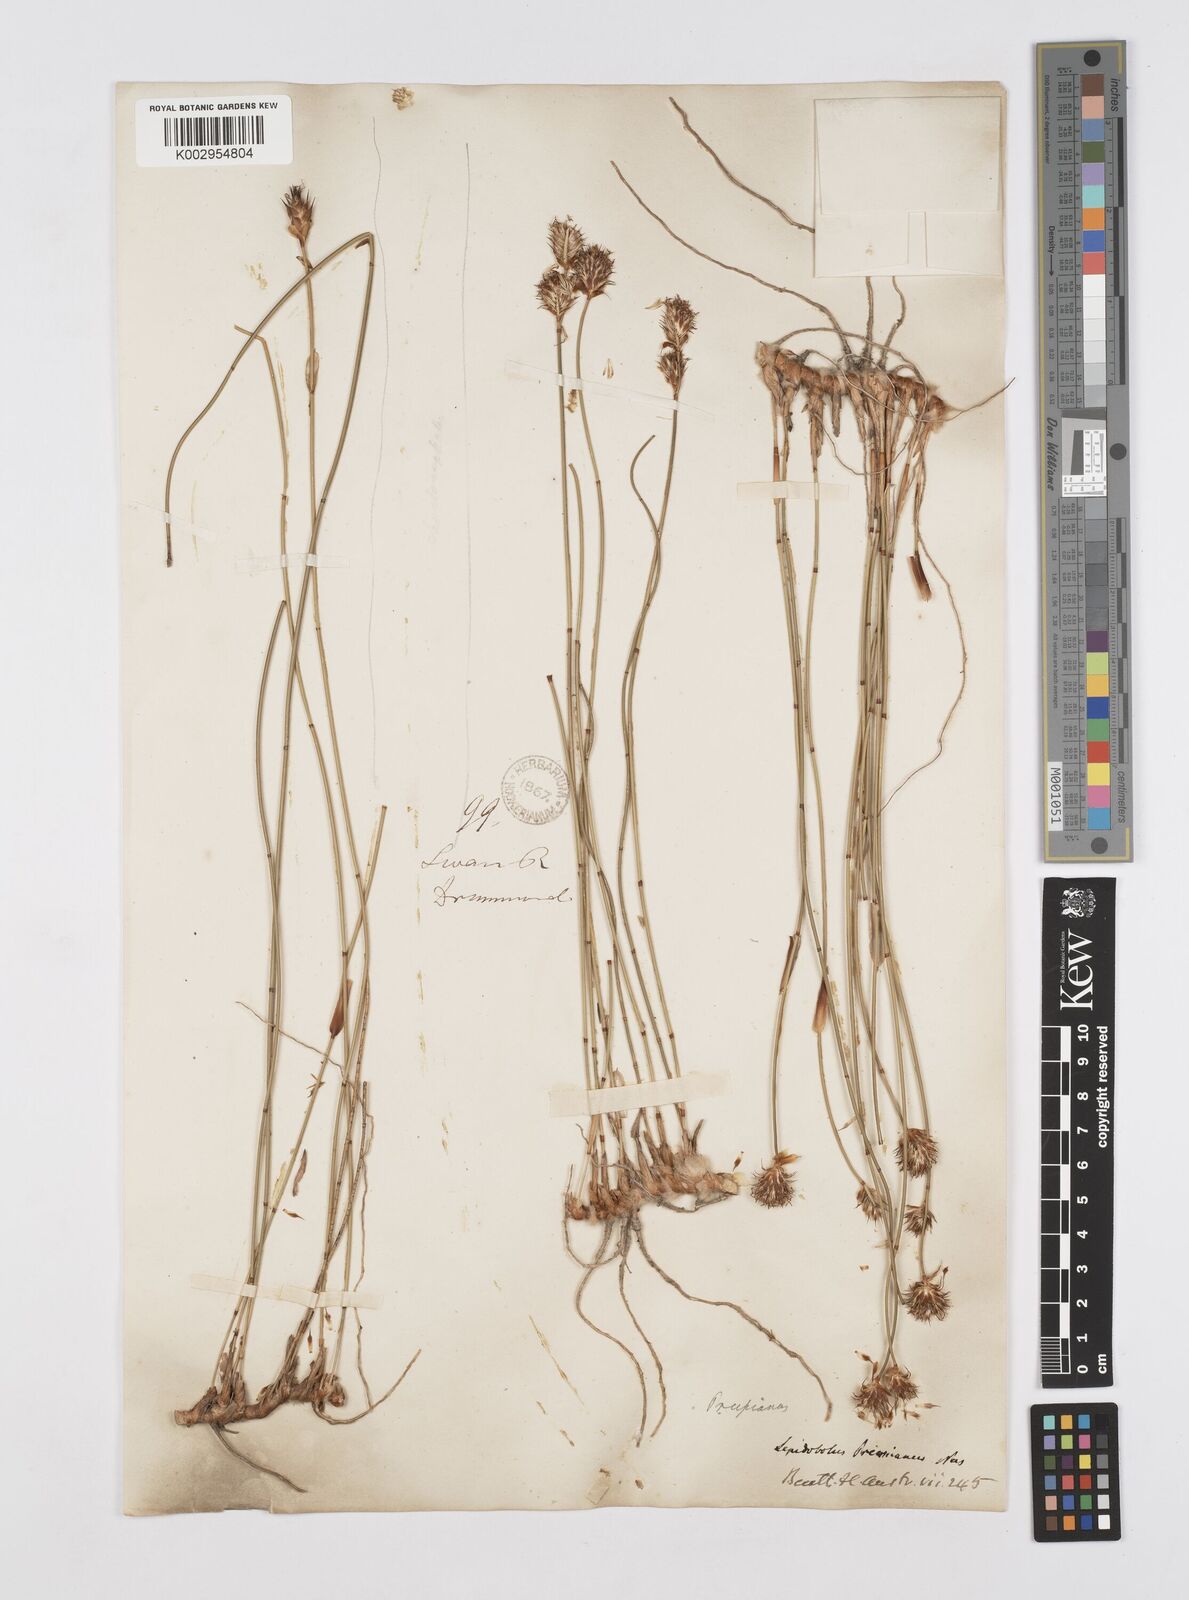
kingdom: Plantae
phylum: Tracheophyta
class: Liliopsida
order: Poales
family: Restionaceae
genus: Lepidobolus
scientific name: Lepidobolus preissianus
